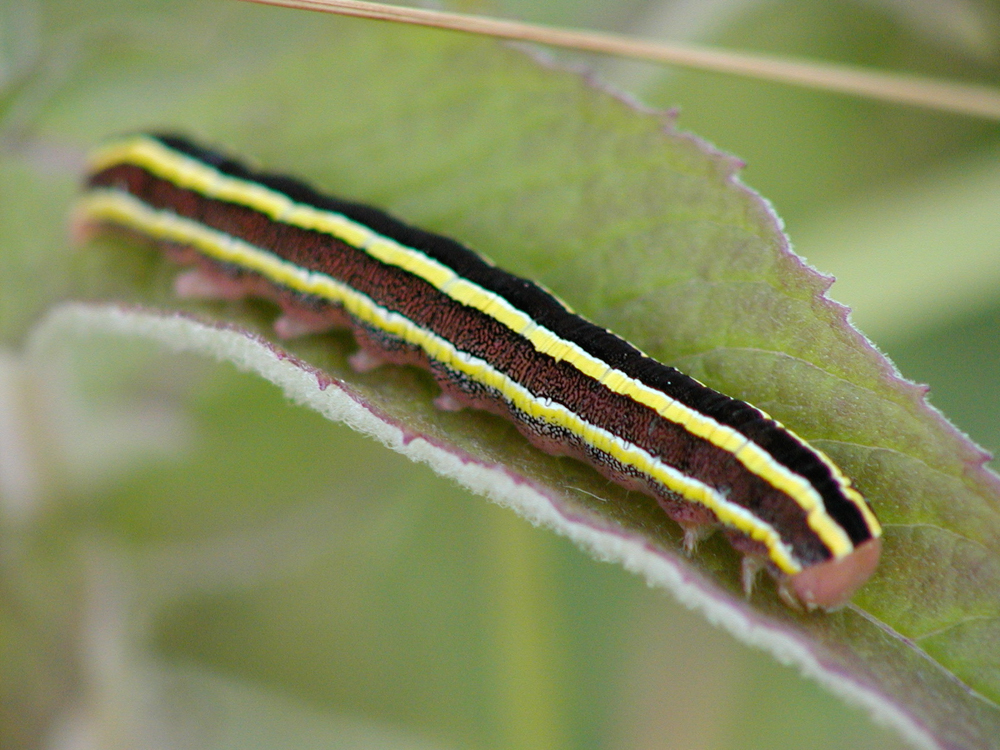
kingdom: Animalia
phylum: Arthropoda
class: Insecta
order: Lepidoptera
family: Noctuidae
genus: Ceramica
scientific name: Ceramica pisi
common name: Broom moth
